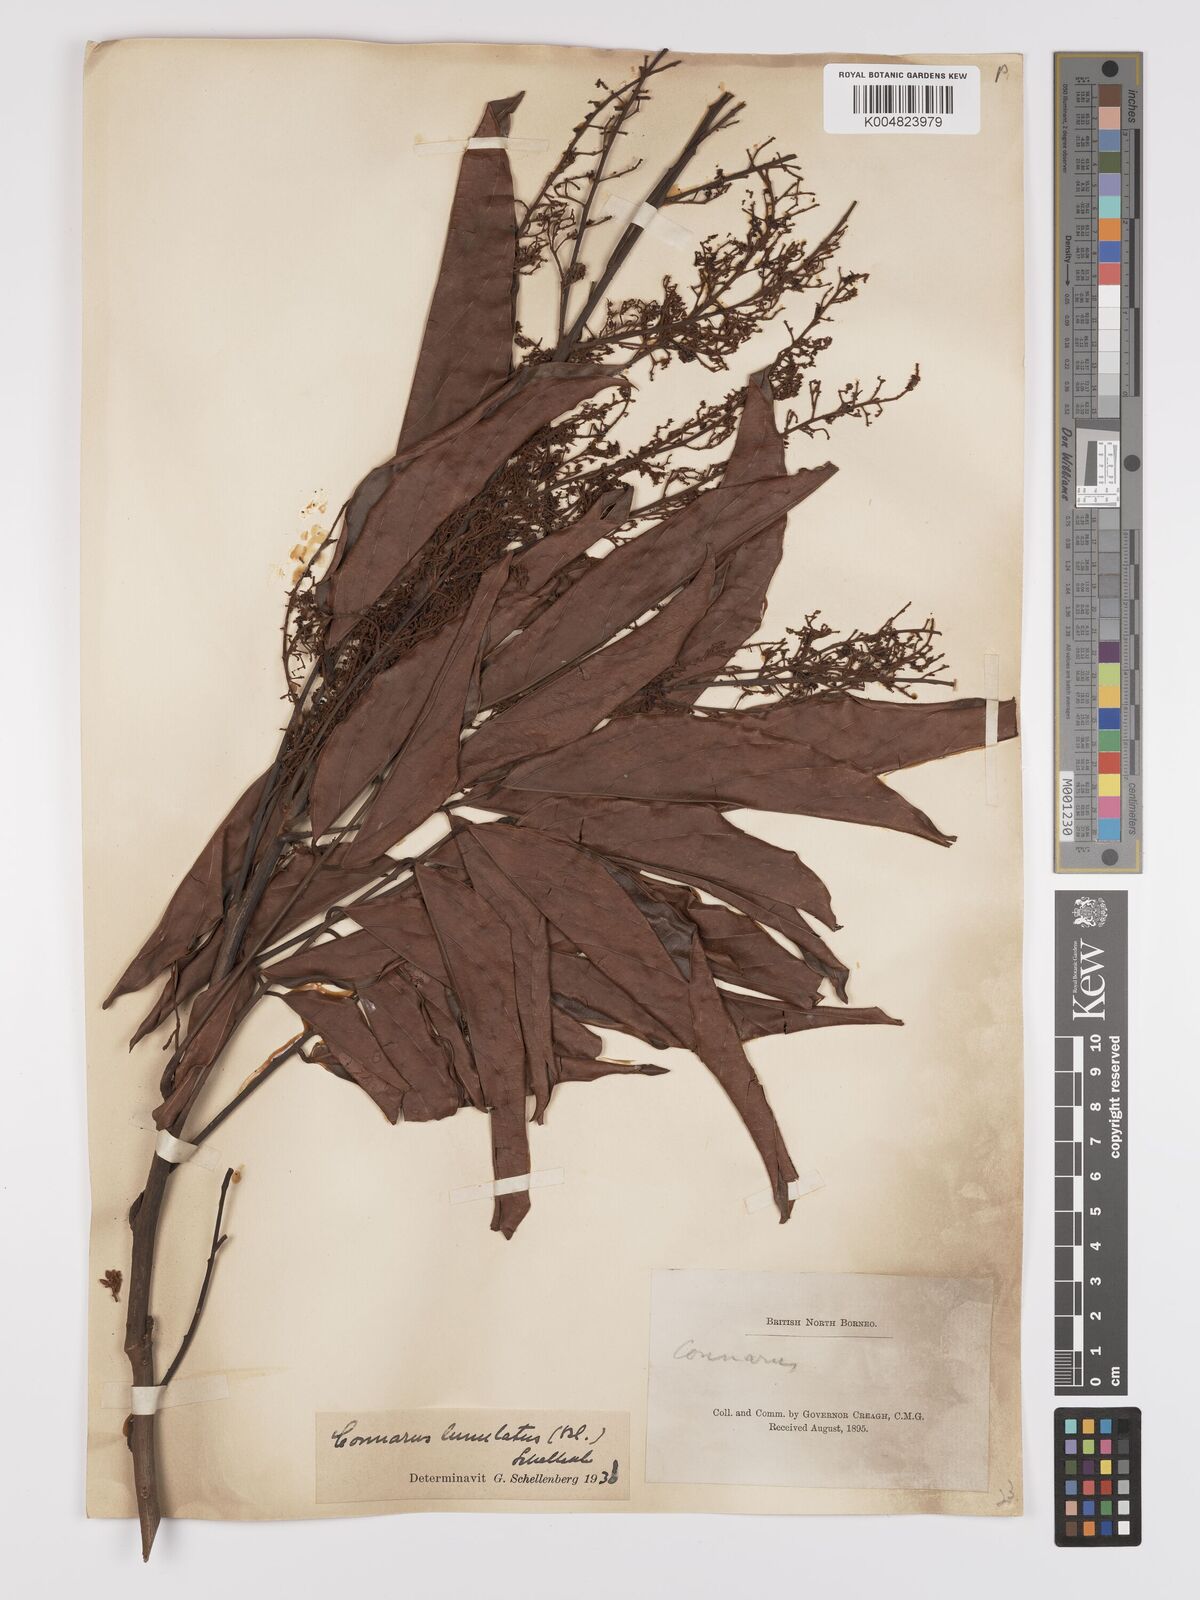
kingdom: Plantae
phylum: Tracheophyta
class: Magnoliopsida
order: Oxalidales
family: Connaraceae
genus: Connarus
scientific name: Connarus grandis
